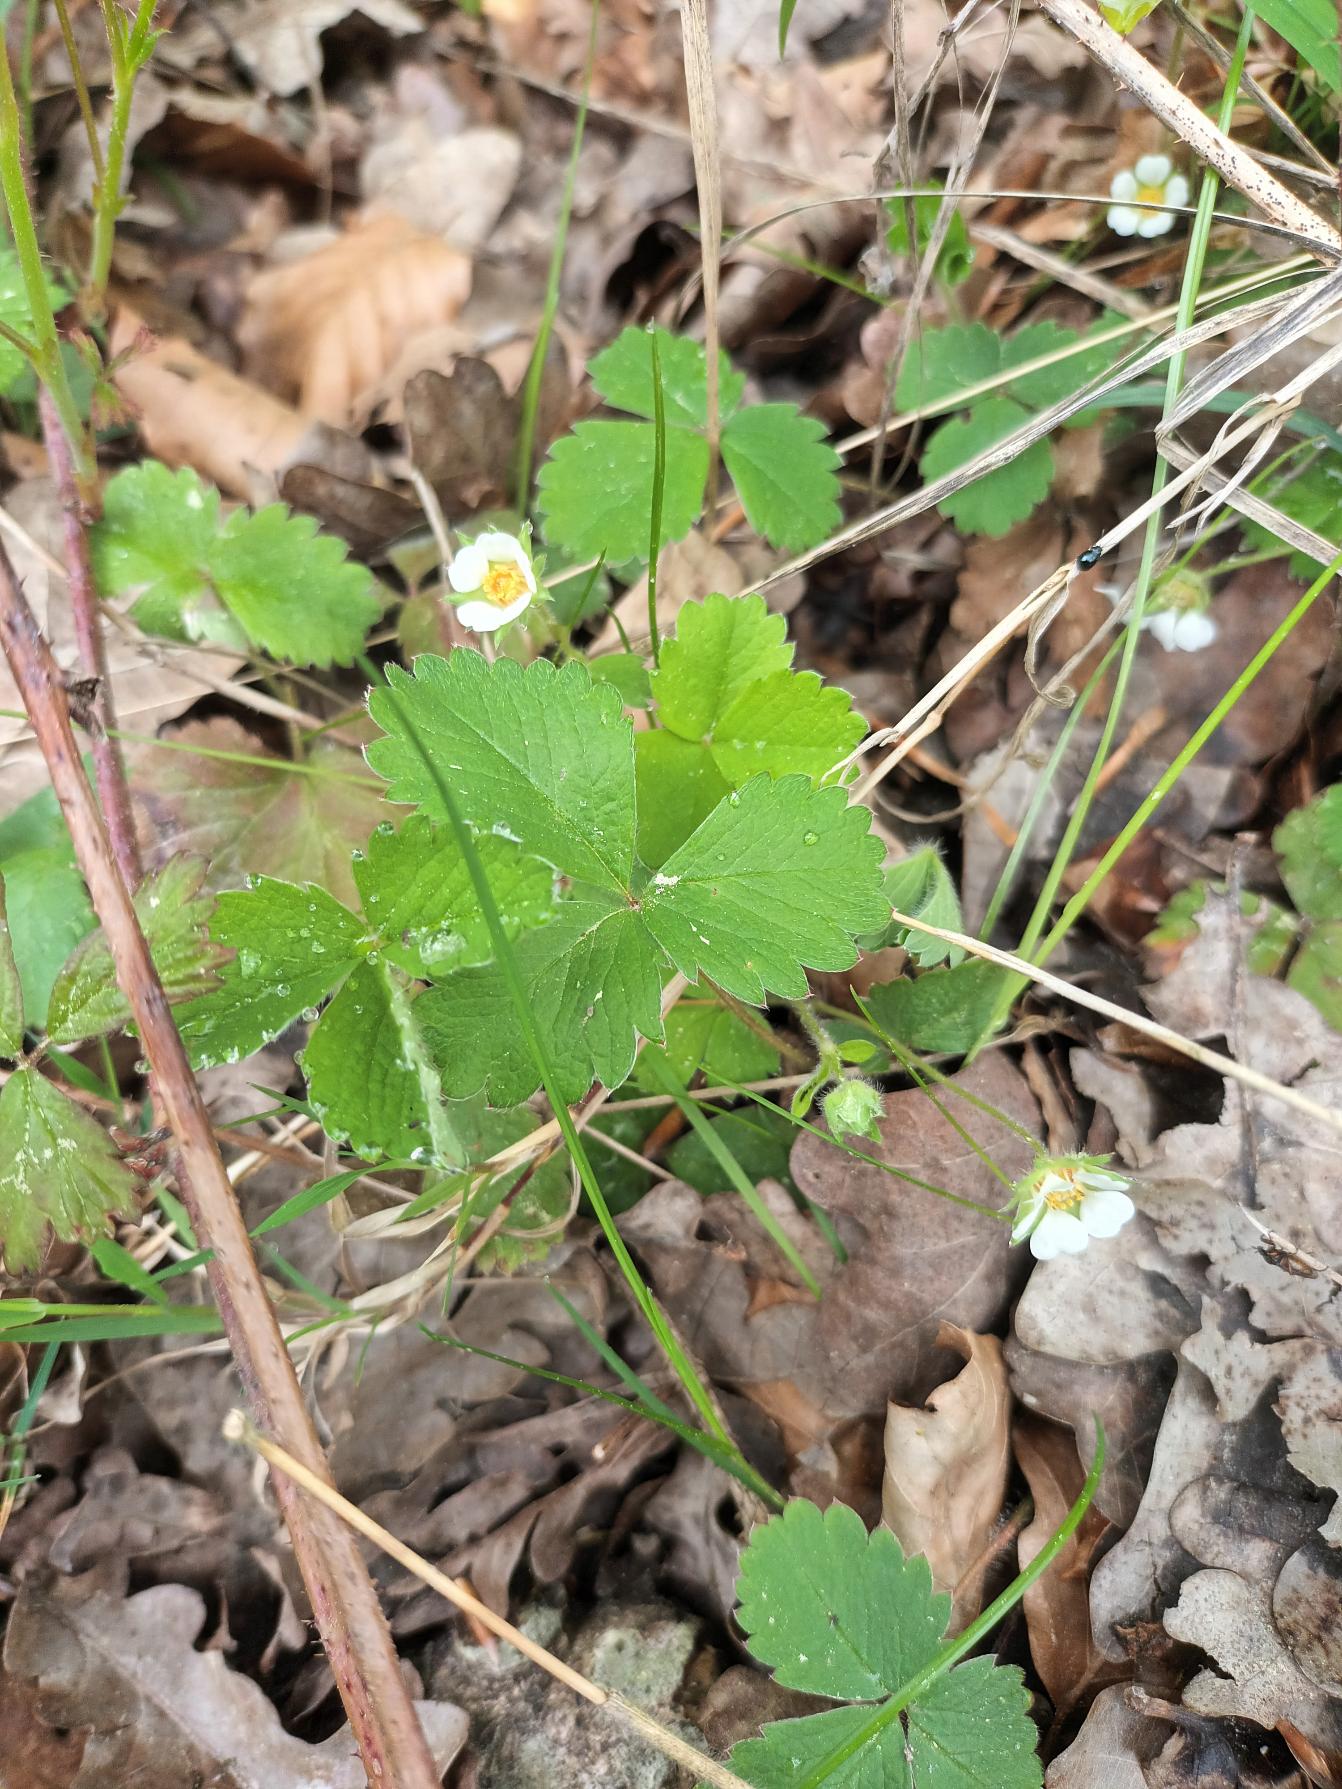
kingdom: Plantae
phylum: Tracheophyta
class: Magnoliopsida
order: Rosales
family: Rosaceae
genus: Potentilla
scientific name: Potentilla sterilis
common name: Jordbær-potentil
